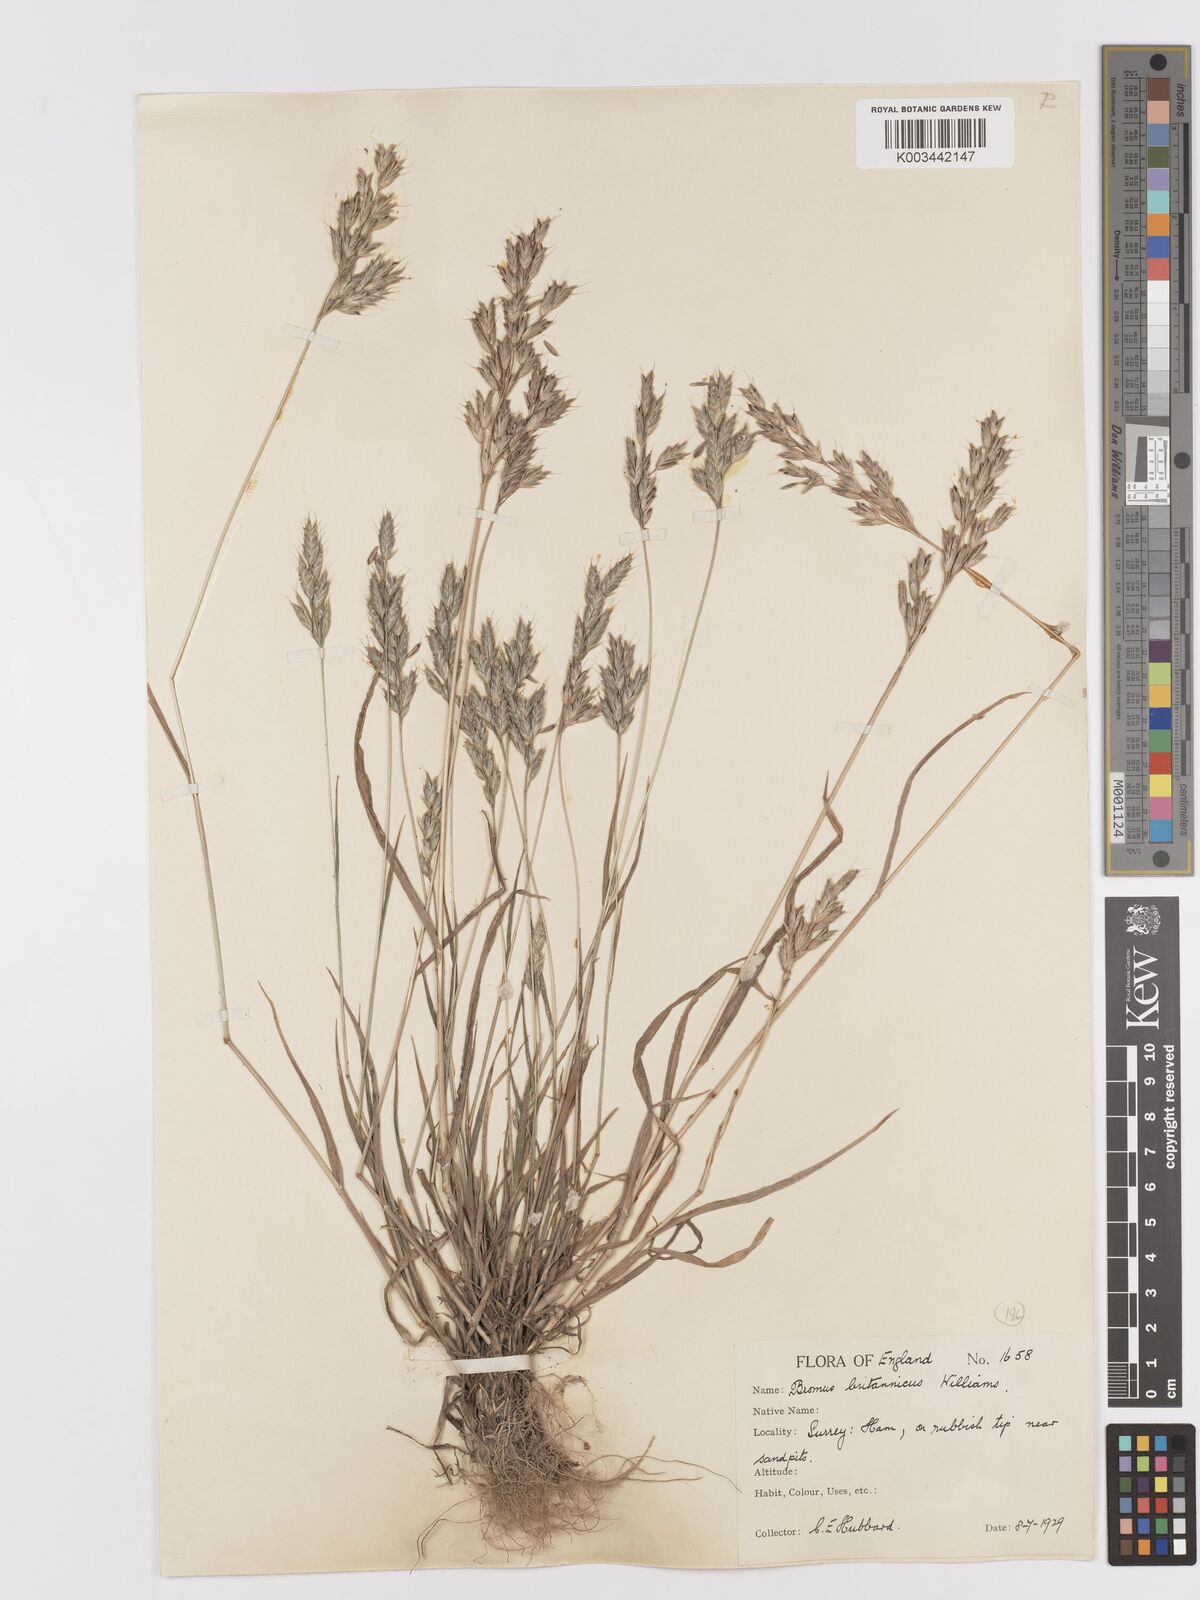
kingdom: Plantae
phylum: Tracheophyta
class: Liliopsida
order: Poales
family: Poaceae
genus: Bromus
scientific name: Bromus lepidus
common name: Slender soft-brome
